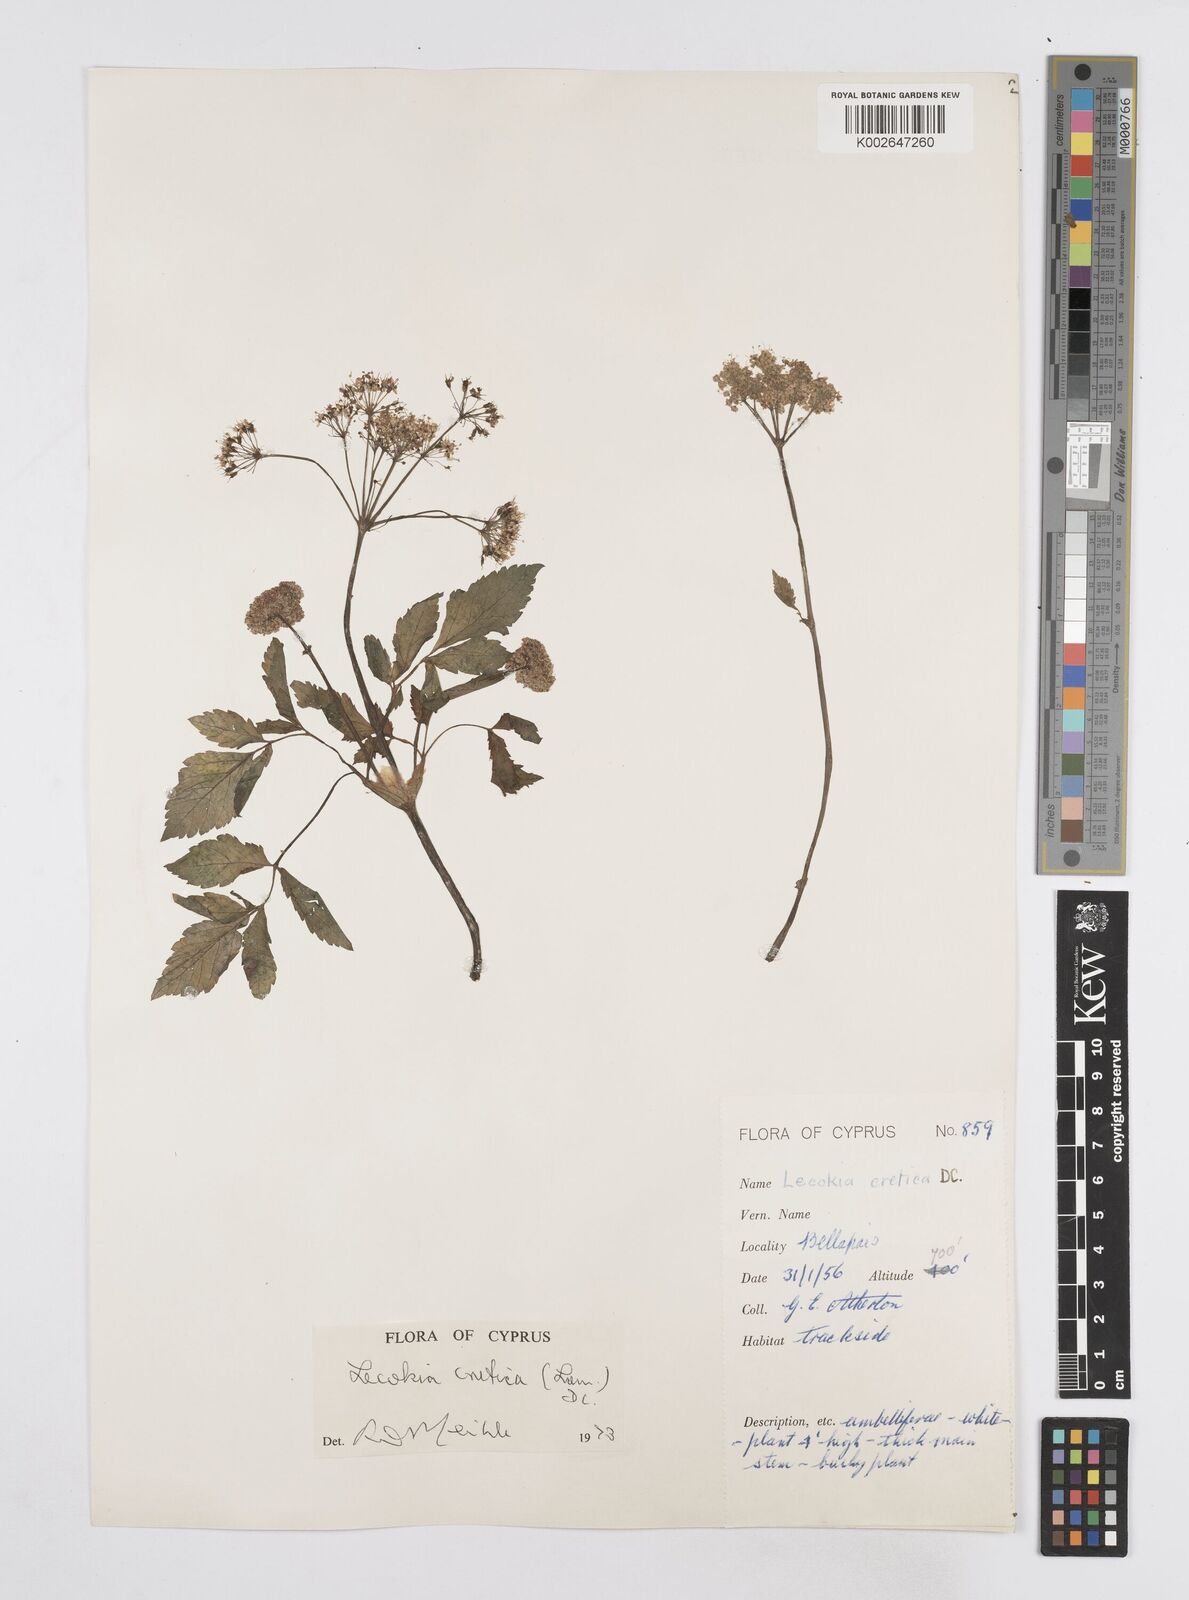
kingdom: Plantae
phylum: Tracheophyta
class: Magnoliopsida
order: Apiales
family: Apiaceae
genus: Lecokia
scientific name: Lecokia cretica
